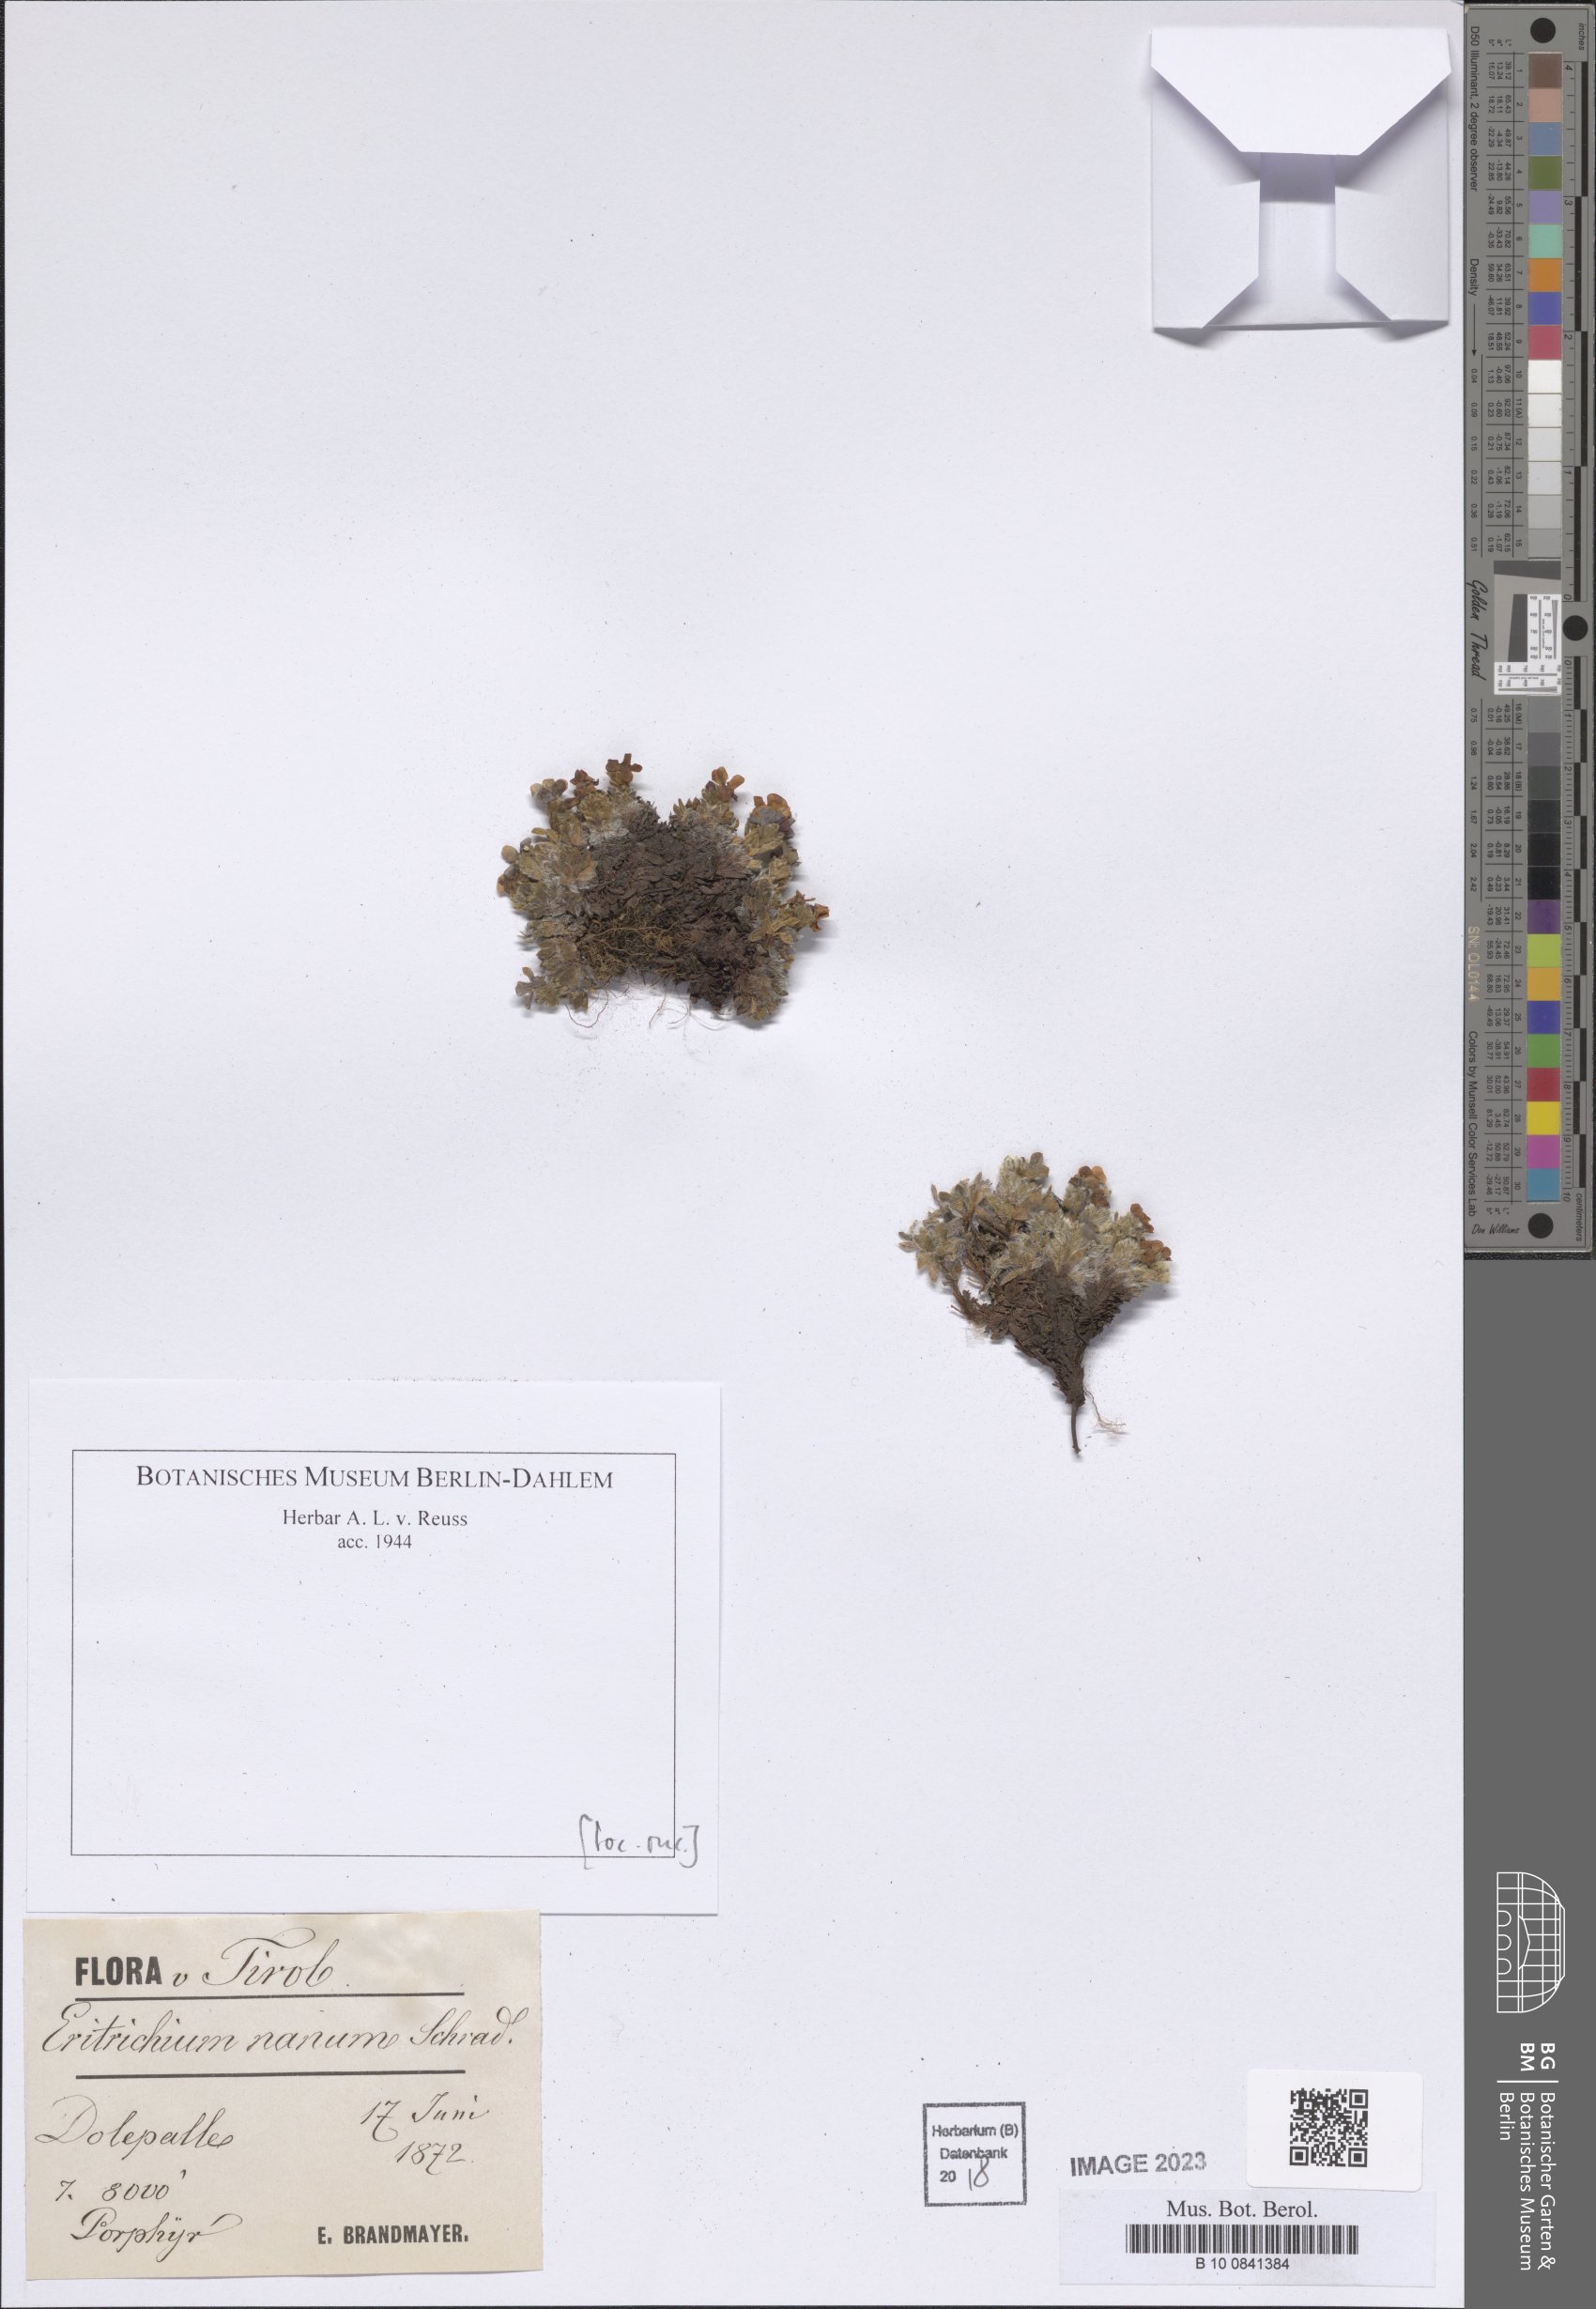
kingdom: Plantae
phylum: Tracheophyta
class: Magnoliopsida
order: Boraginales
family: Boraginaceae
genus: Eritrichium
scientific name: Eritrichium nanum
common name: King-of-the-alps
